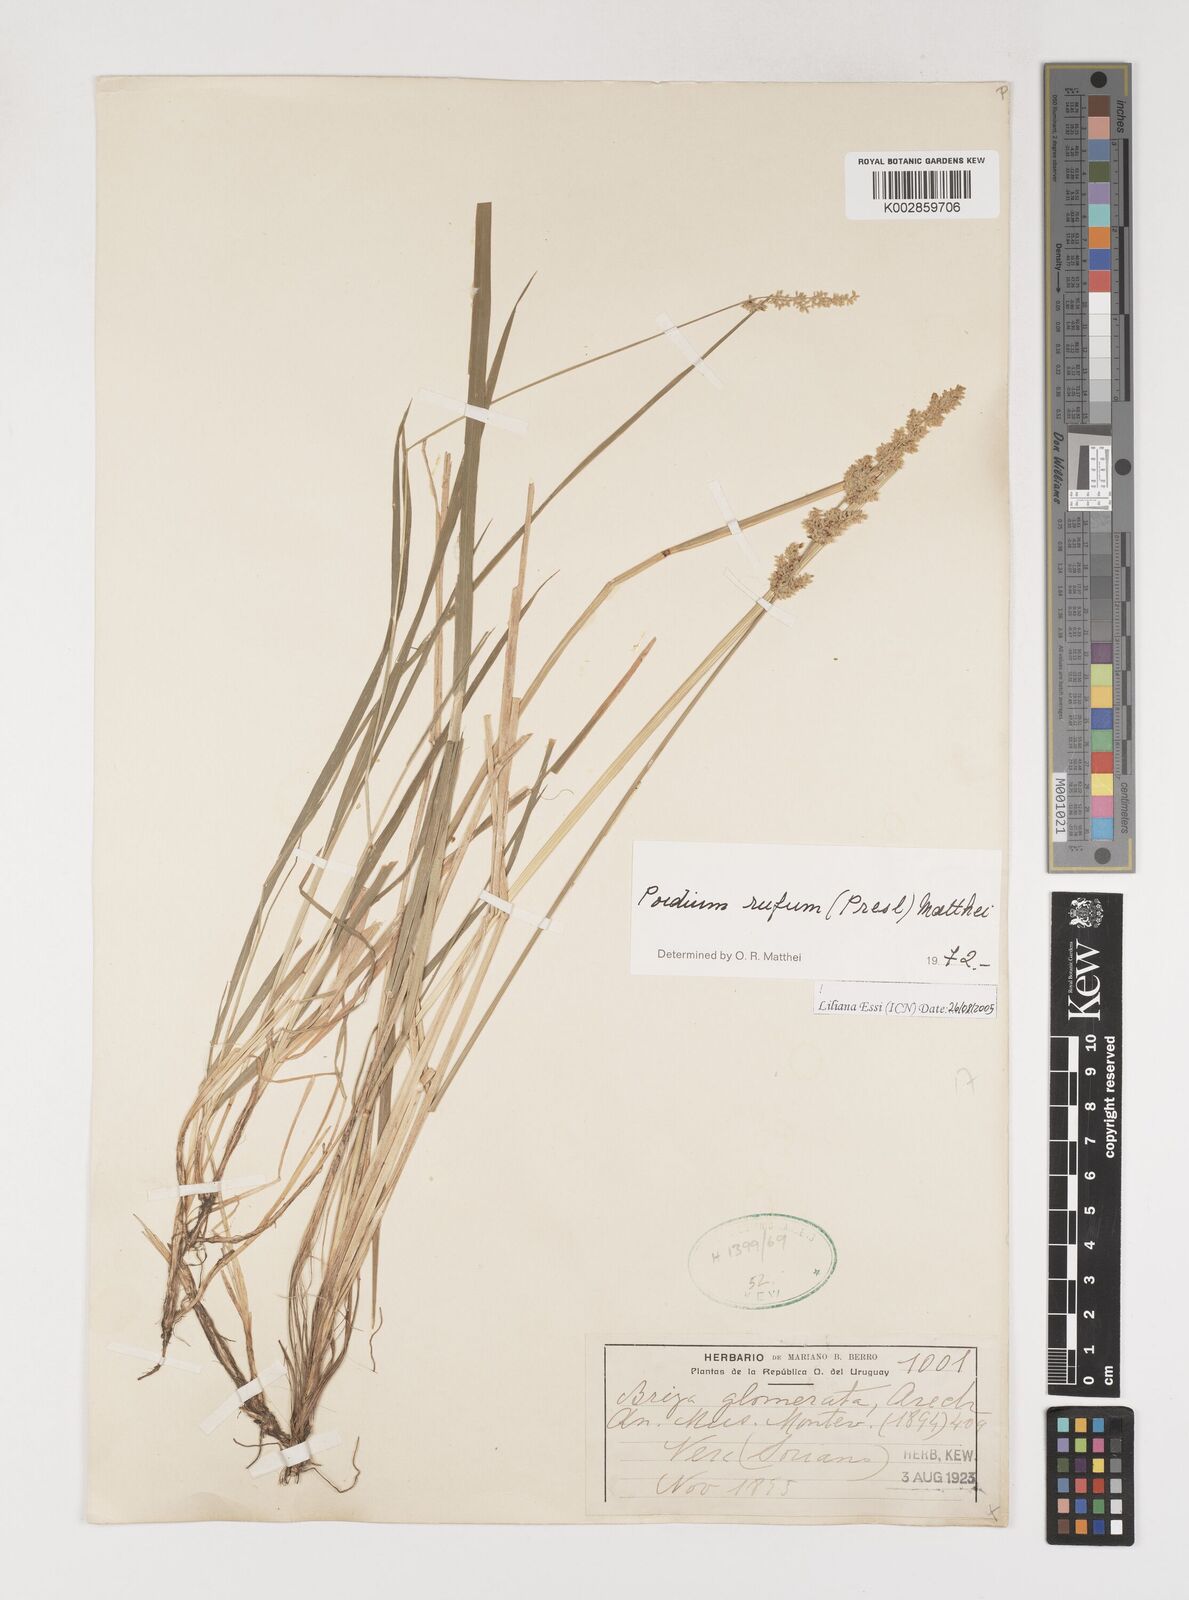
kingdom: Plantae
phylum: Tracheophyta
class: Liliopsida
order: Poales
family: Poaceae
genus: Lombardochloa
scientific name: Lombardochloa rufa
